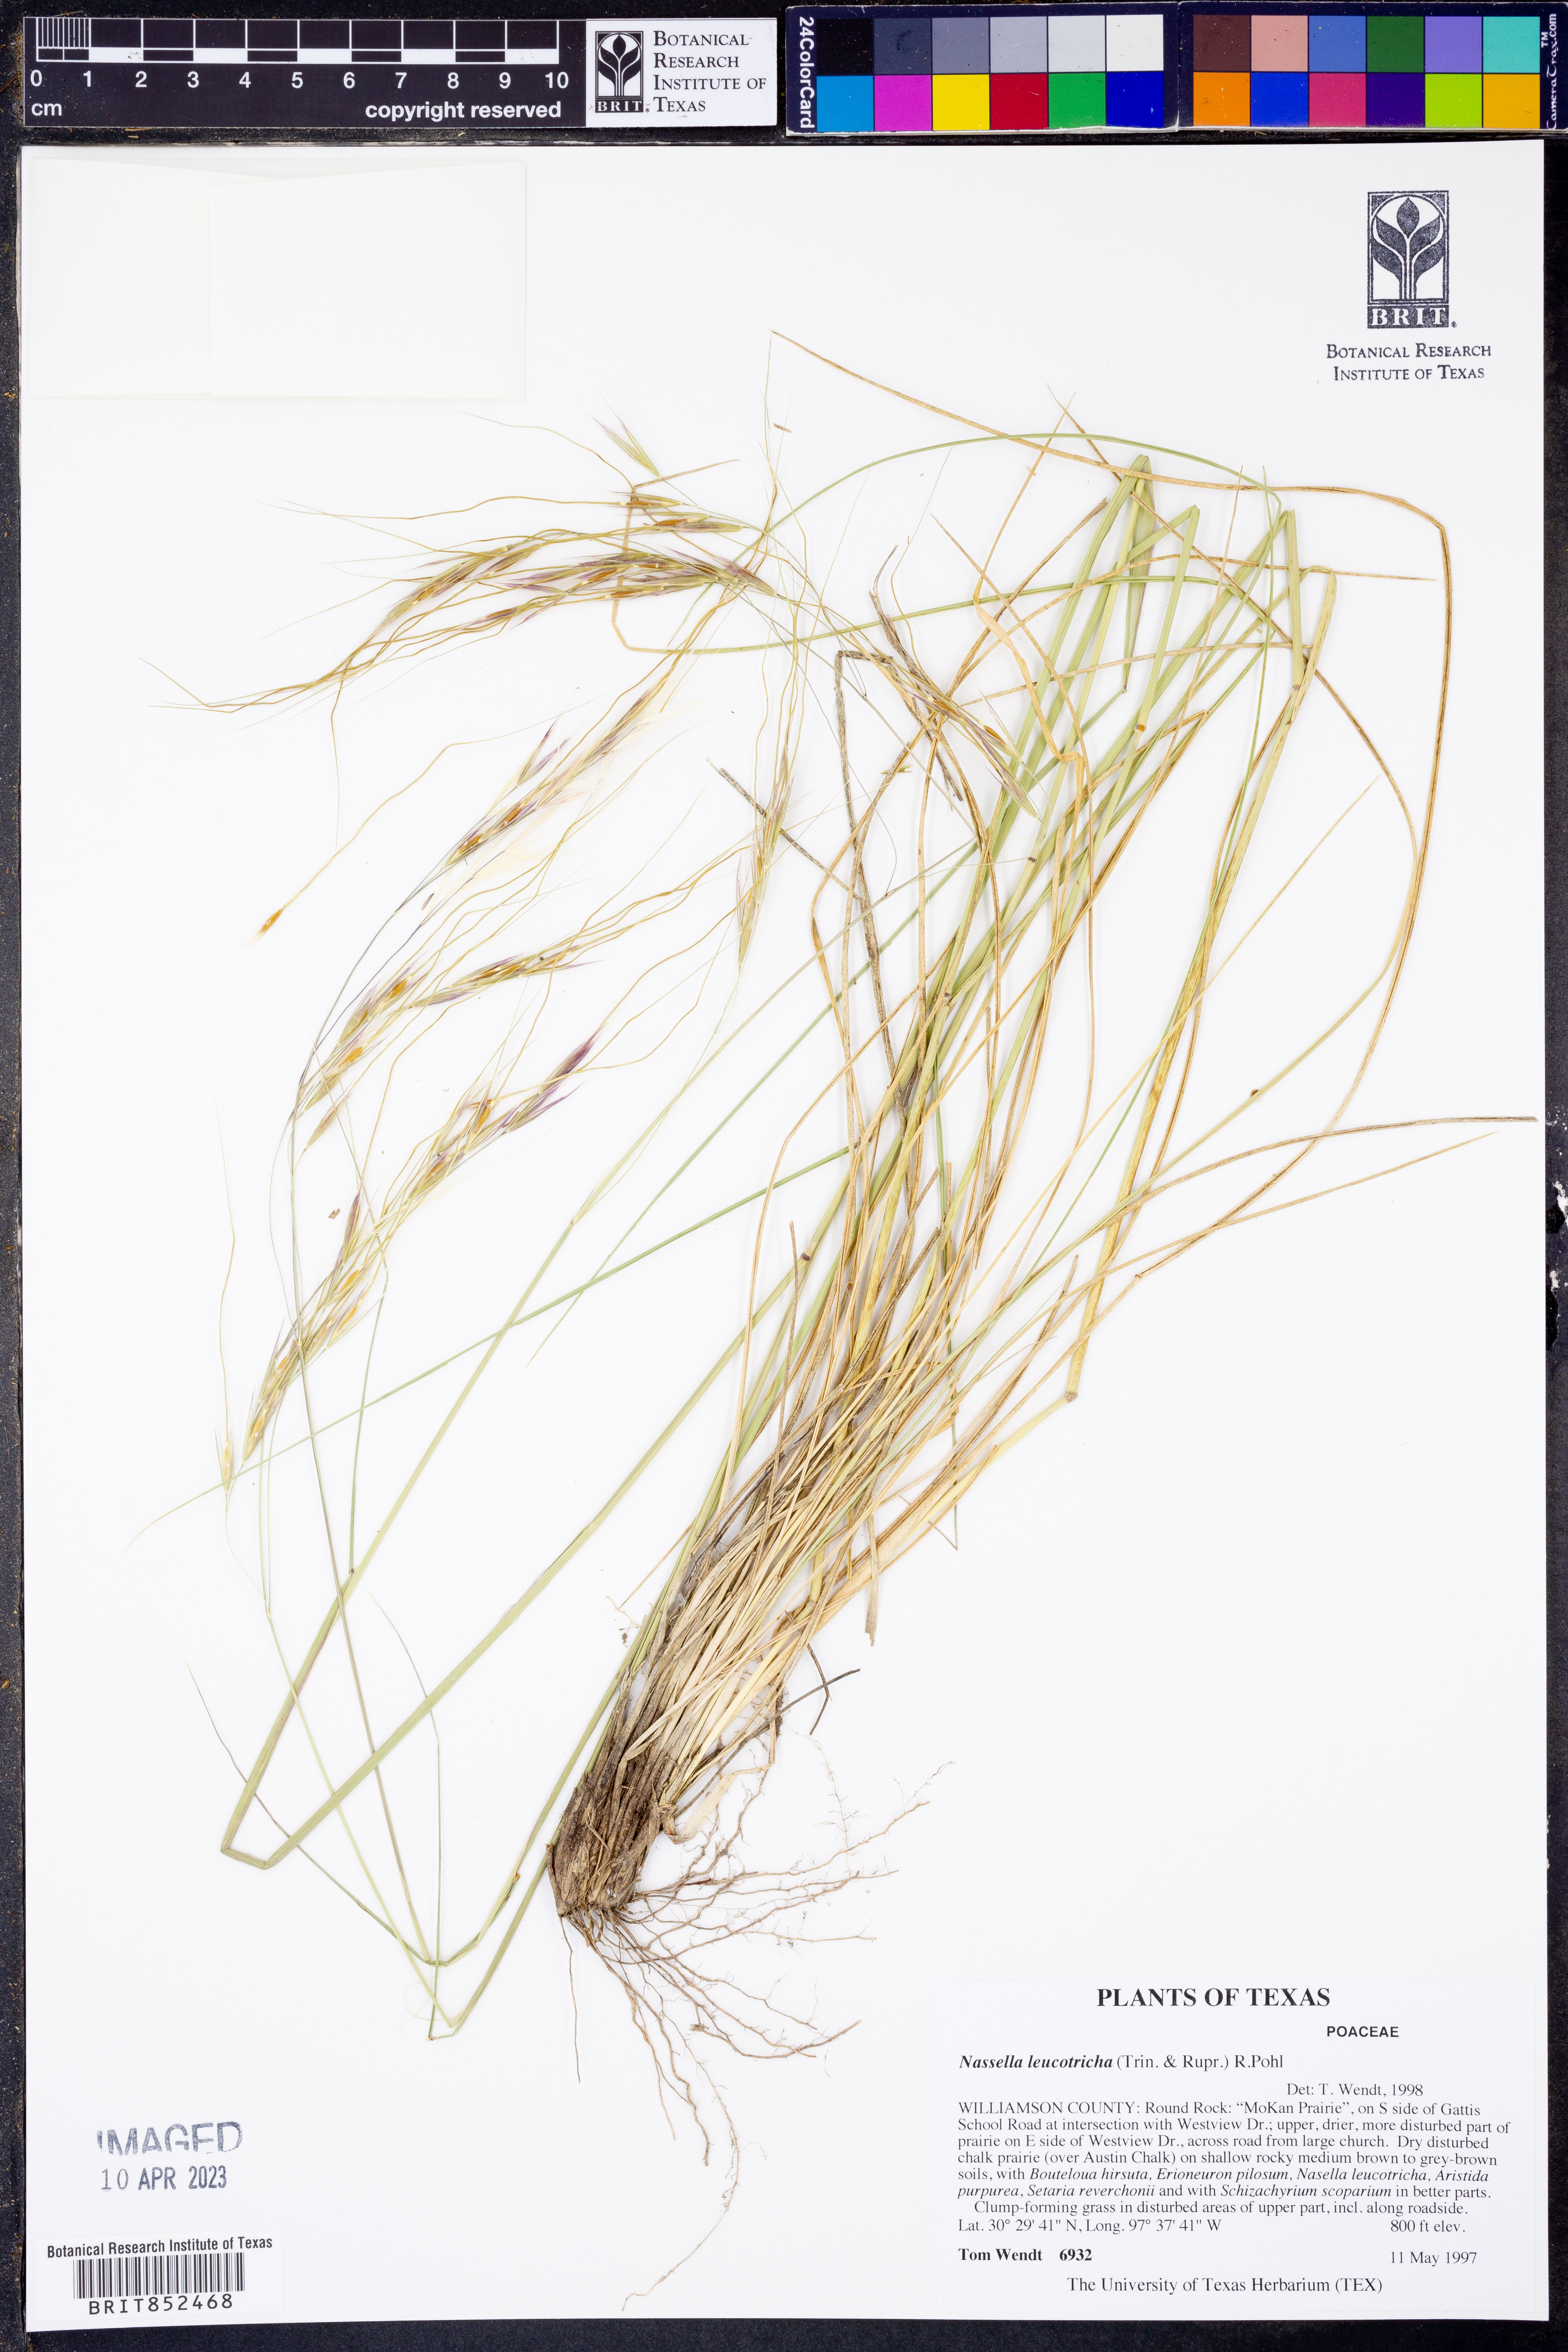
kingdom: Plantae
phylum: Tracheophyta
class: Liliopsida
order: Poales
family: Poaceae
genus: Nassella
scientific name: Nassella leucotricha
